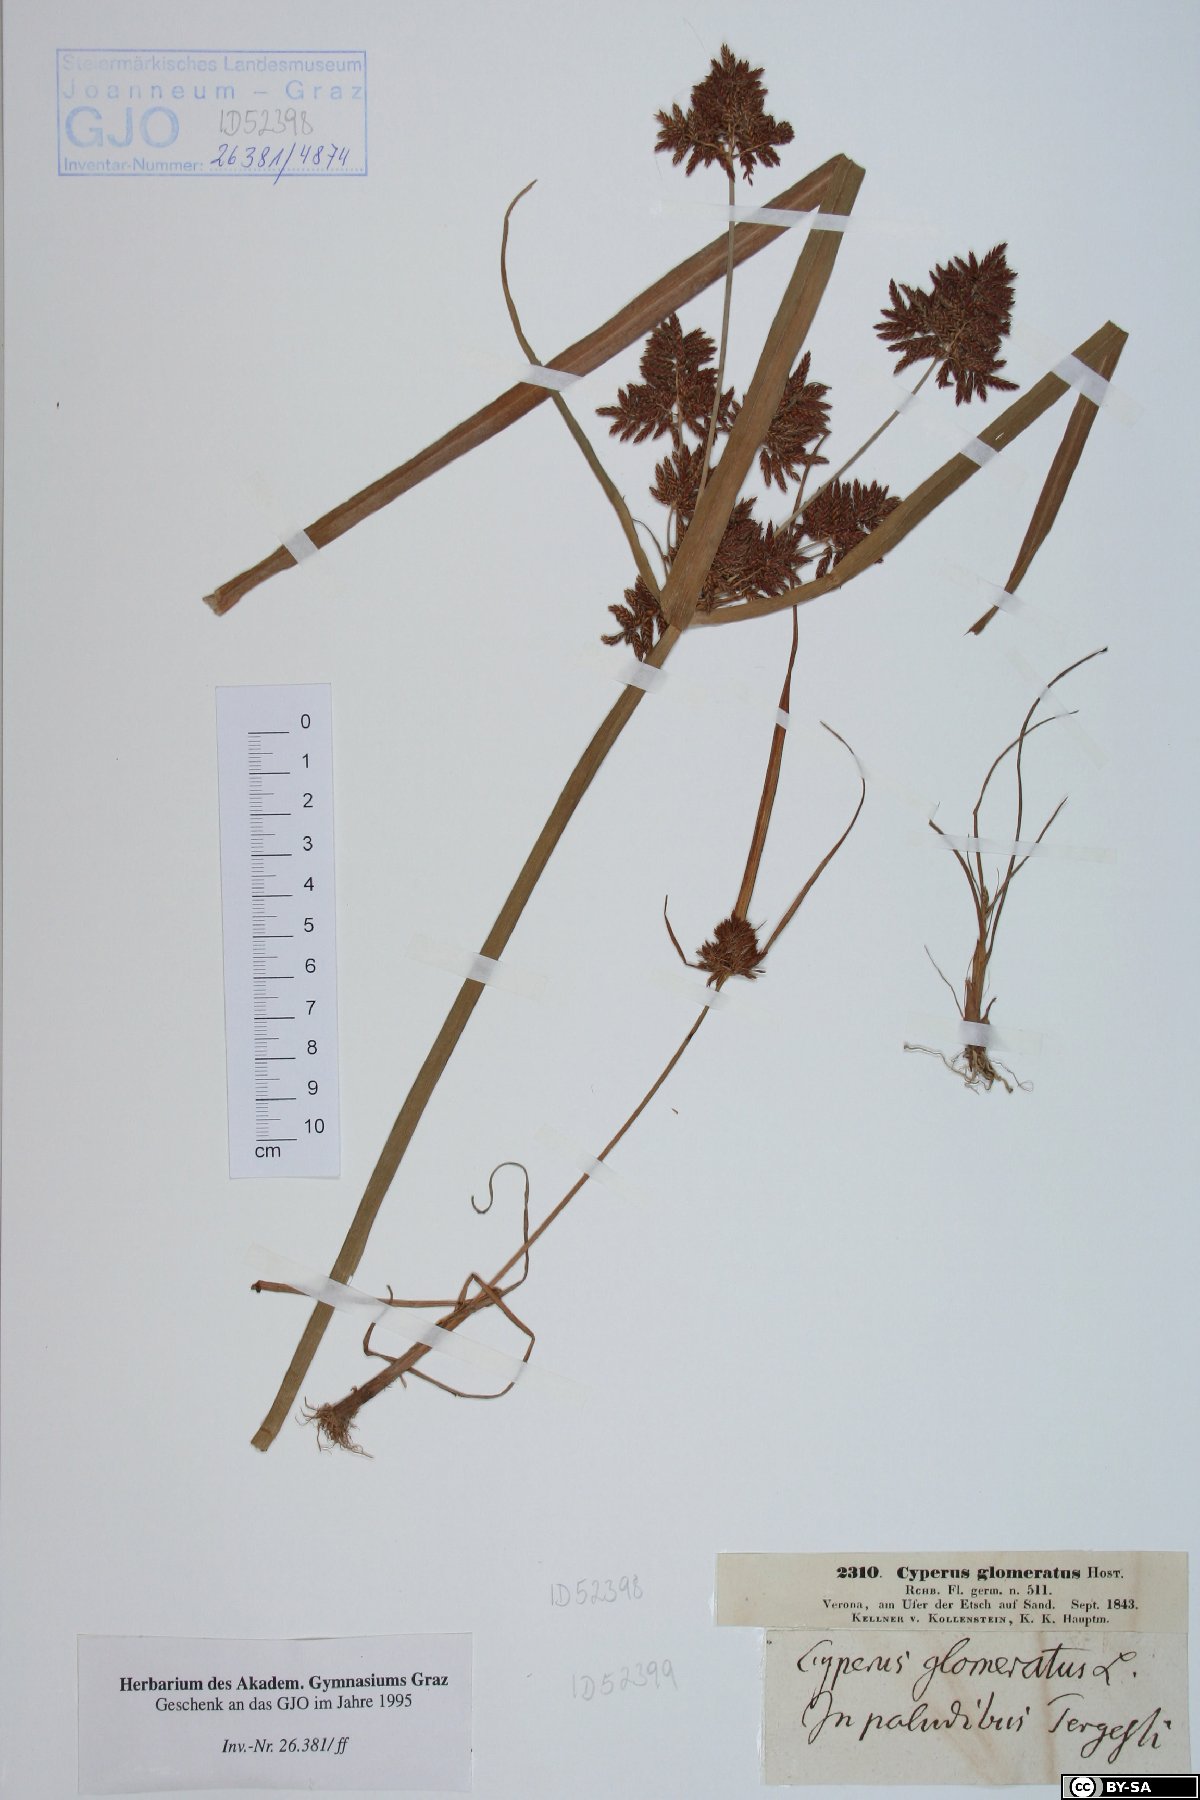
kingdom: Plantae
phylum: Tracheophyta
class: Liliopsida
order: Poales
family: Cyperaceae
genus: Cyperus
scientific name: Cyperus glomeratus
